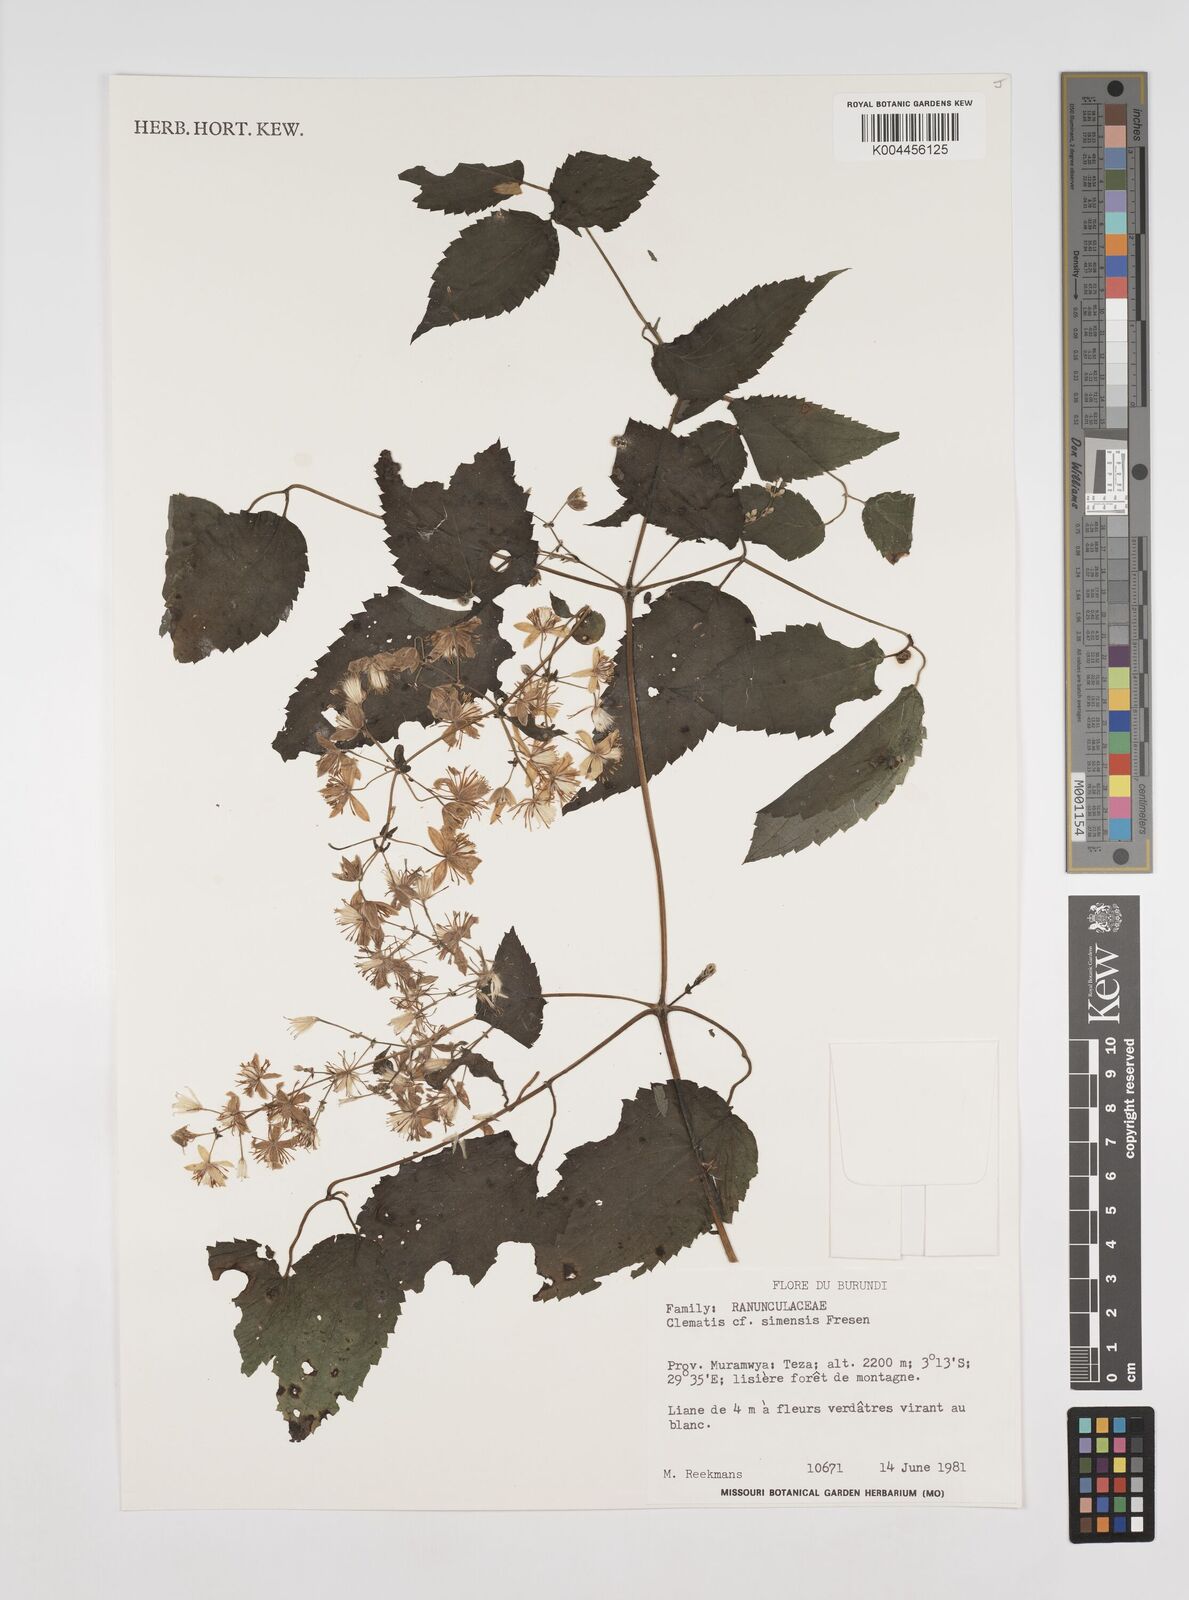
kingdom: Plantae
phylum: Tracheophyta
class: Magnoliopsida
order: Ranunculales
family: Ranunculaceae
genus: Clematis
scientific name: Clematis simensis
